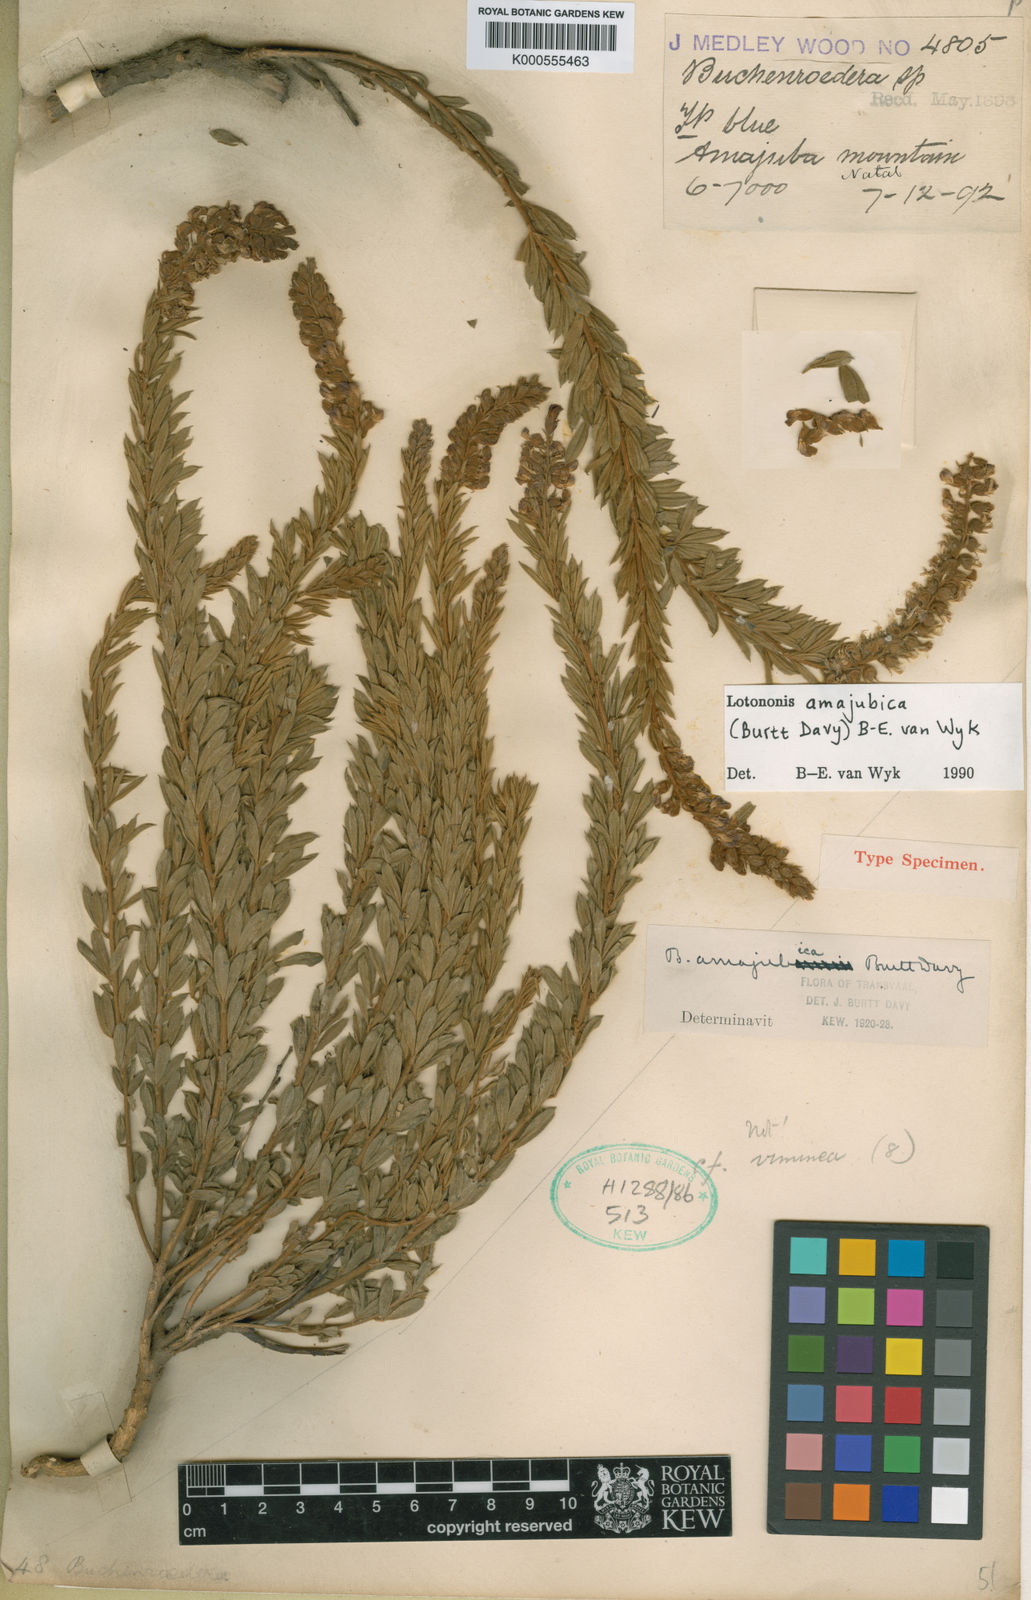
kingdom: Plantae
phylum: Tracheophyta
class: Magnoliopsida
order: Fabales
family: Fabaceae
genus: Lotononis
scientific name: Lotononis amajubica
